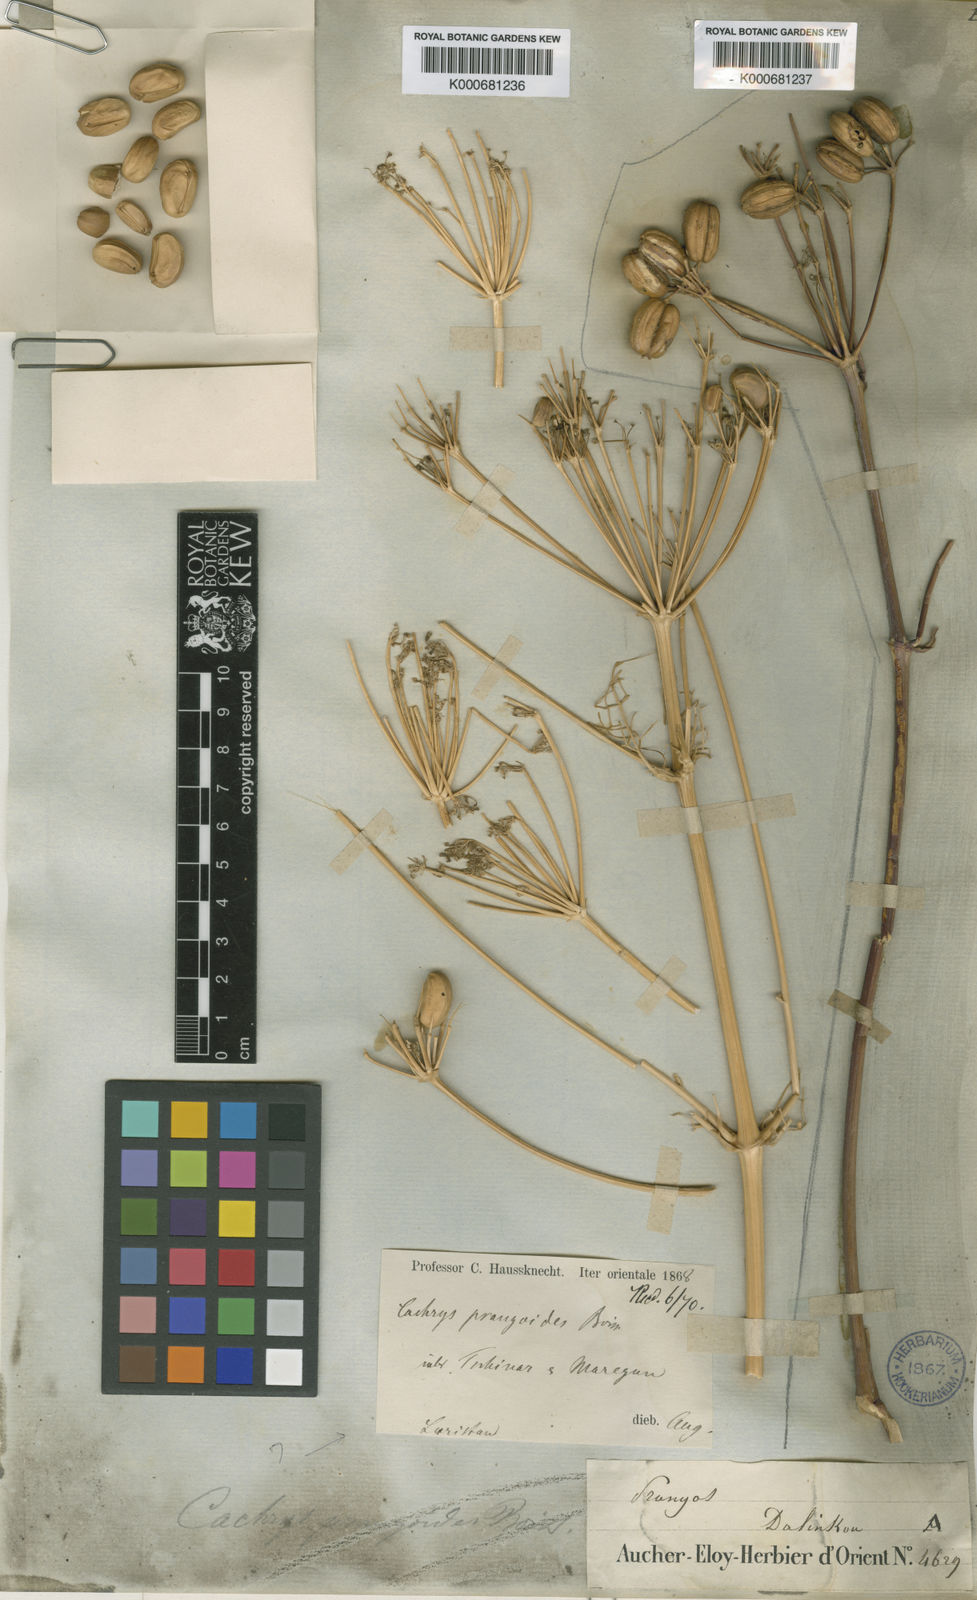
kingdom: Plantae
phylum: Tracheophyta
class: Magnoliopsida
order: Apiales
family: Apiaceae
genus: Prangos
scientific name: Prangos ferulacea
